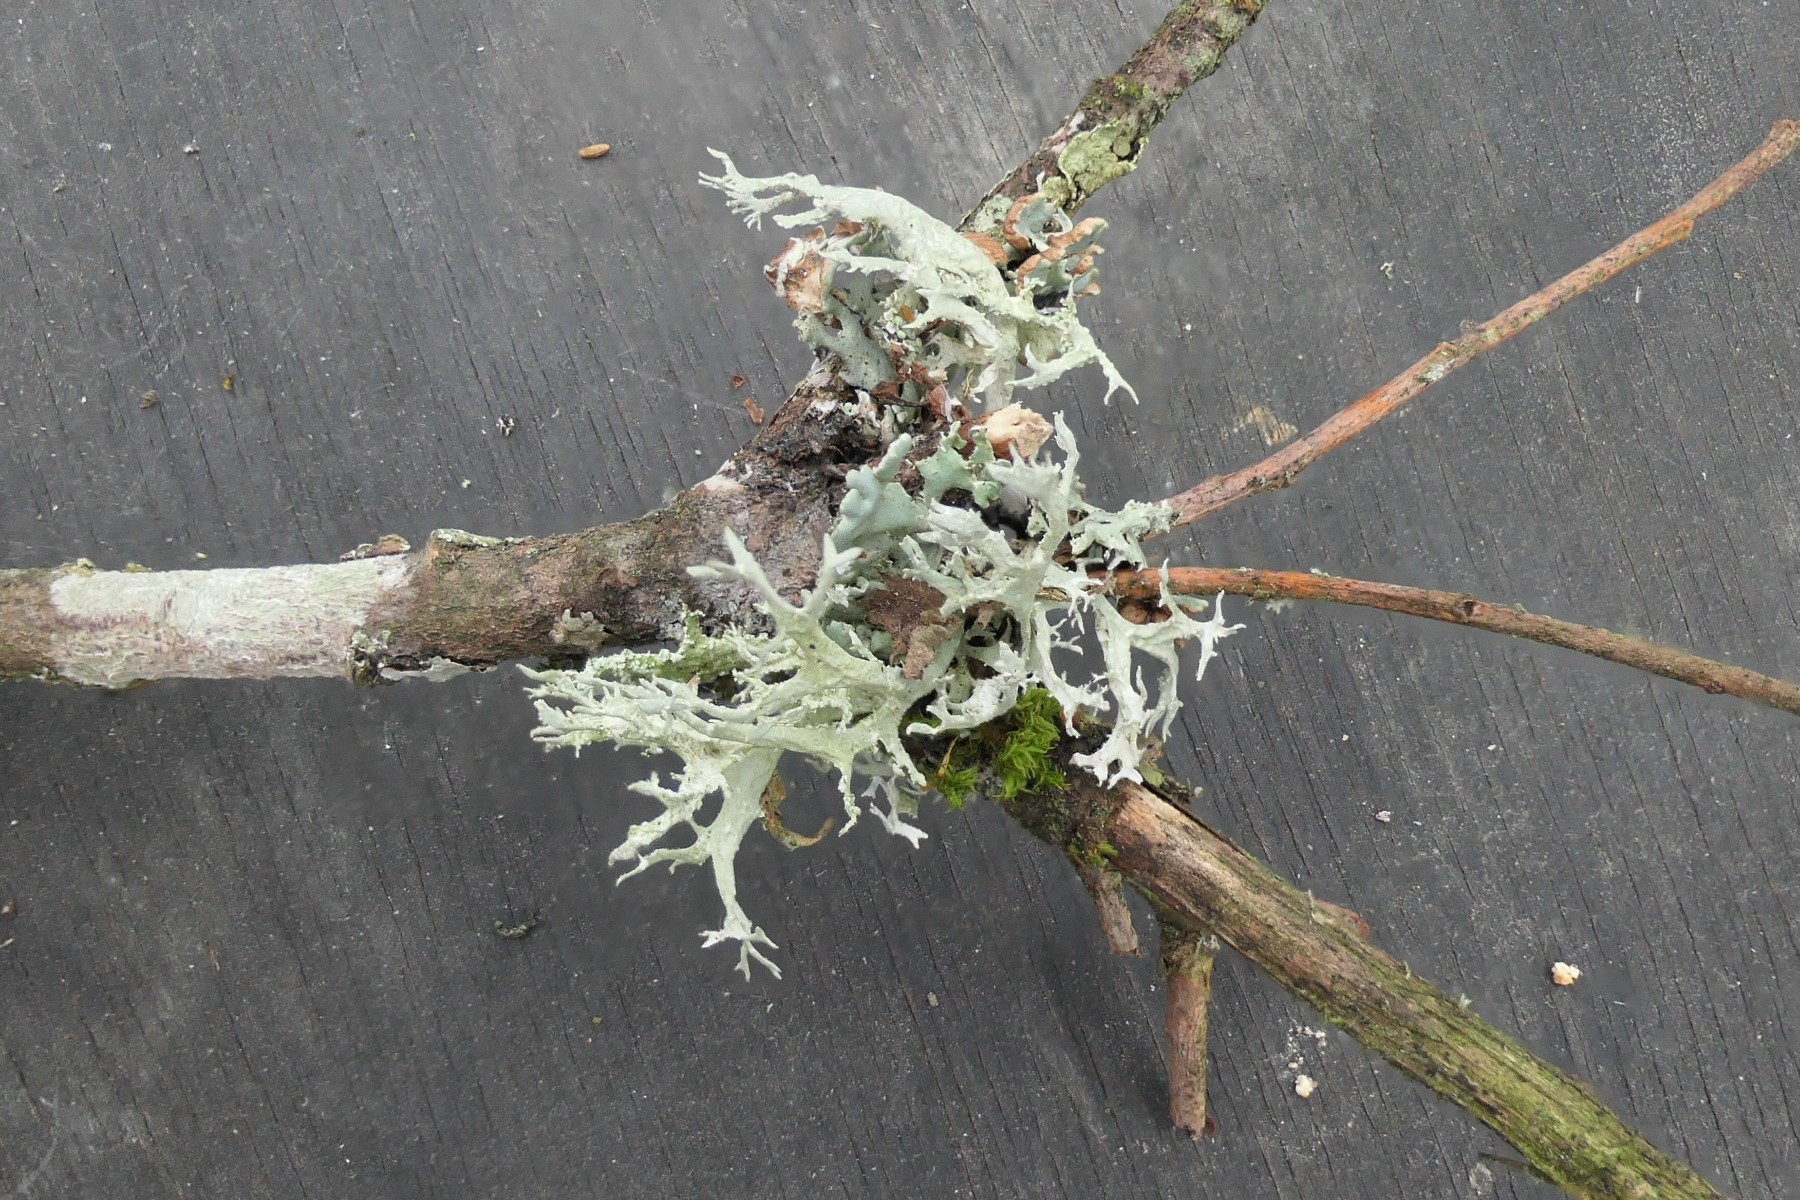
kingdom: Fungi
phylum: Ascomycota
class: Lecanoromycetes
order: Lecanorales
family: Parmeliaceae
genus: Evernia
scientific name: Evernia prunastri
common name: almindelig slåenlav
